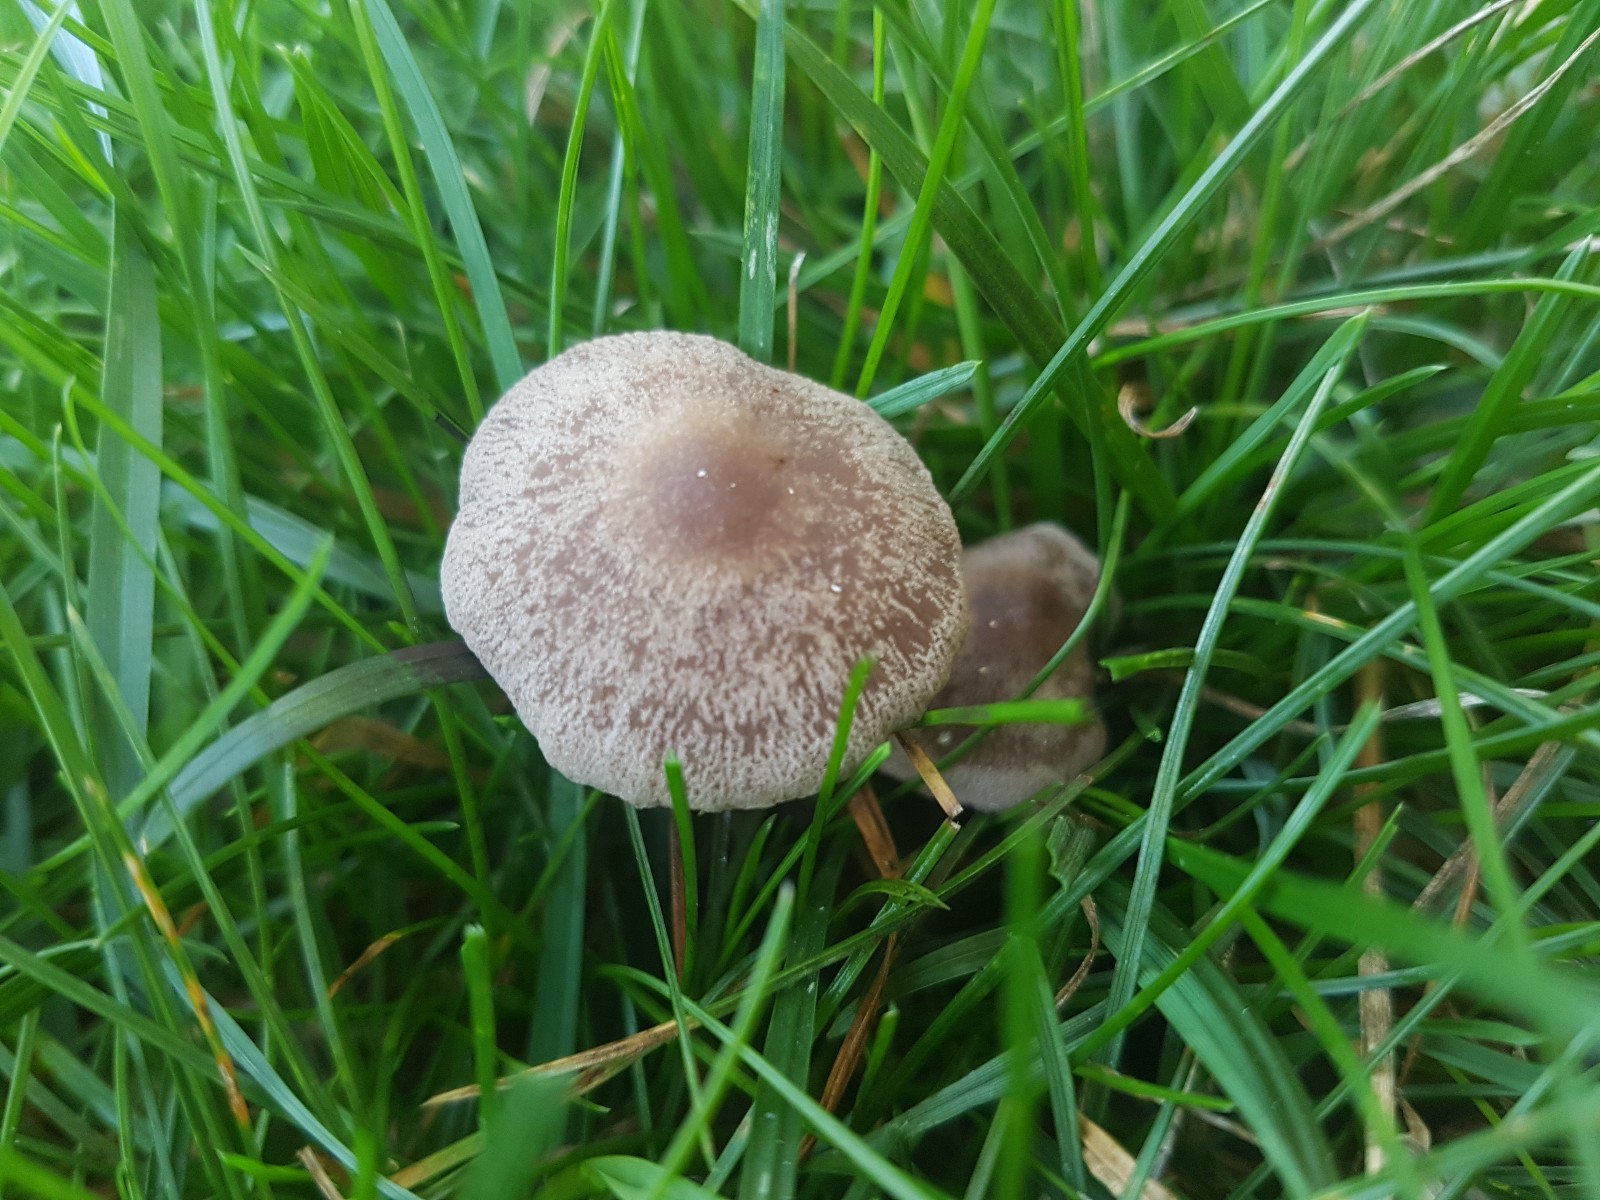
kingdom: Fungi
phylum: Basidiomycota
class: Agaricomycetes
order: Agaricales
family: Bolbitiaceae
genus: Panaeolina
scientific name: Panaeolina foenisecii
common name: høslætsvamp
